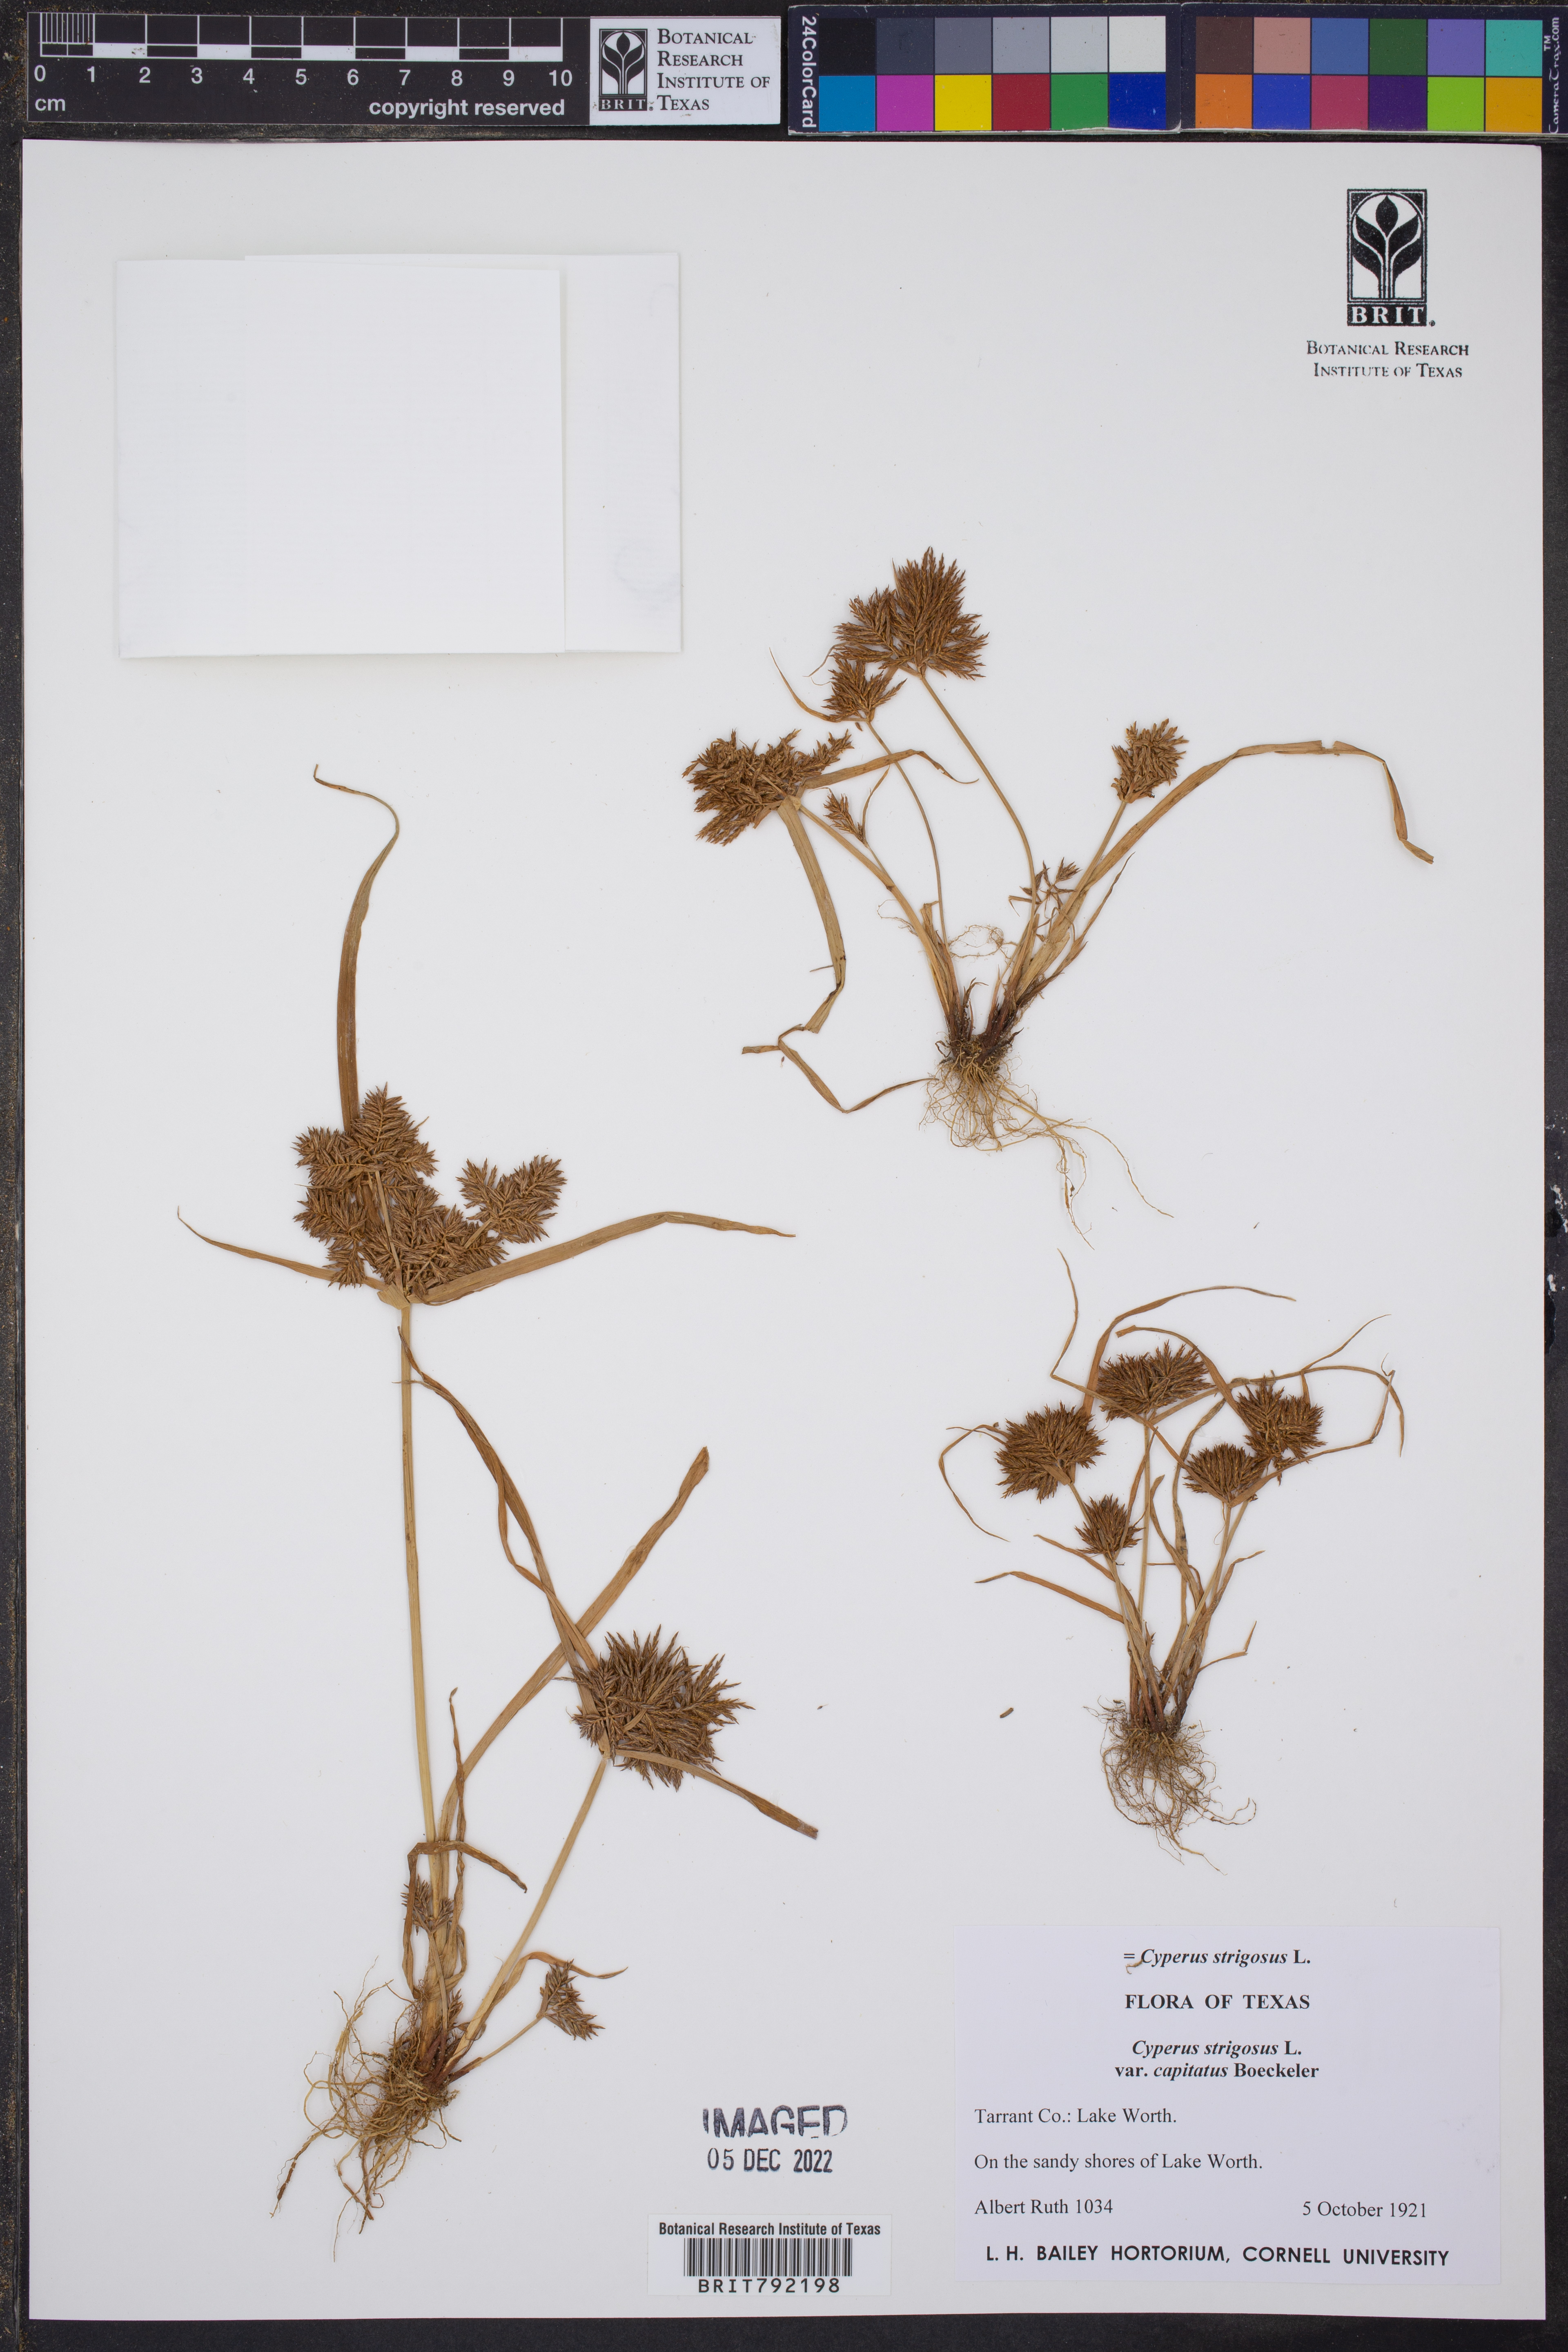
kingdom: Plantae
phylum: Tracheophyta
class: Liliopsida
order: Poales
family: Cyperaceae
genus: Cyperus
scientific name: Cyperus strigosus
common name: False nutsedge
